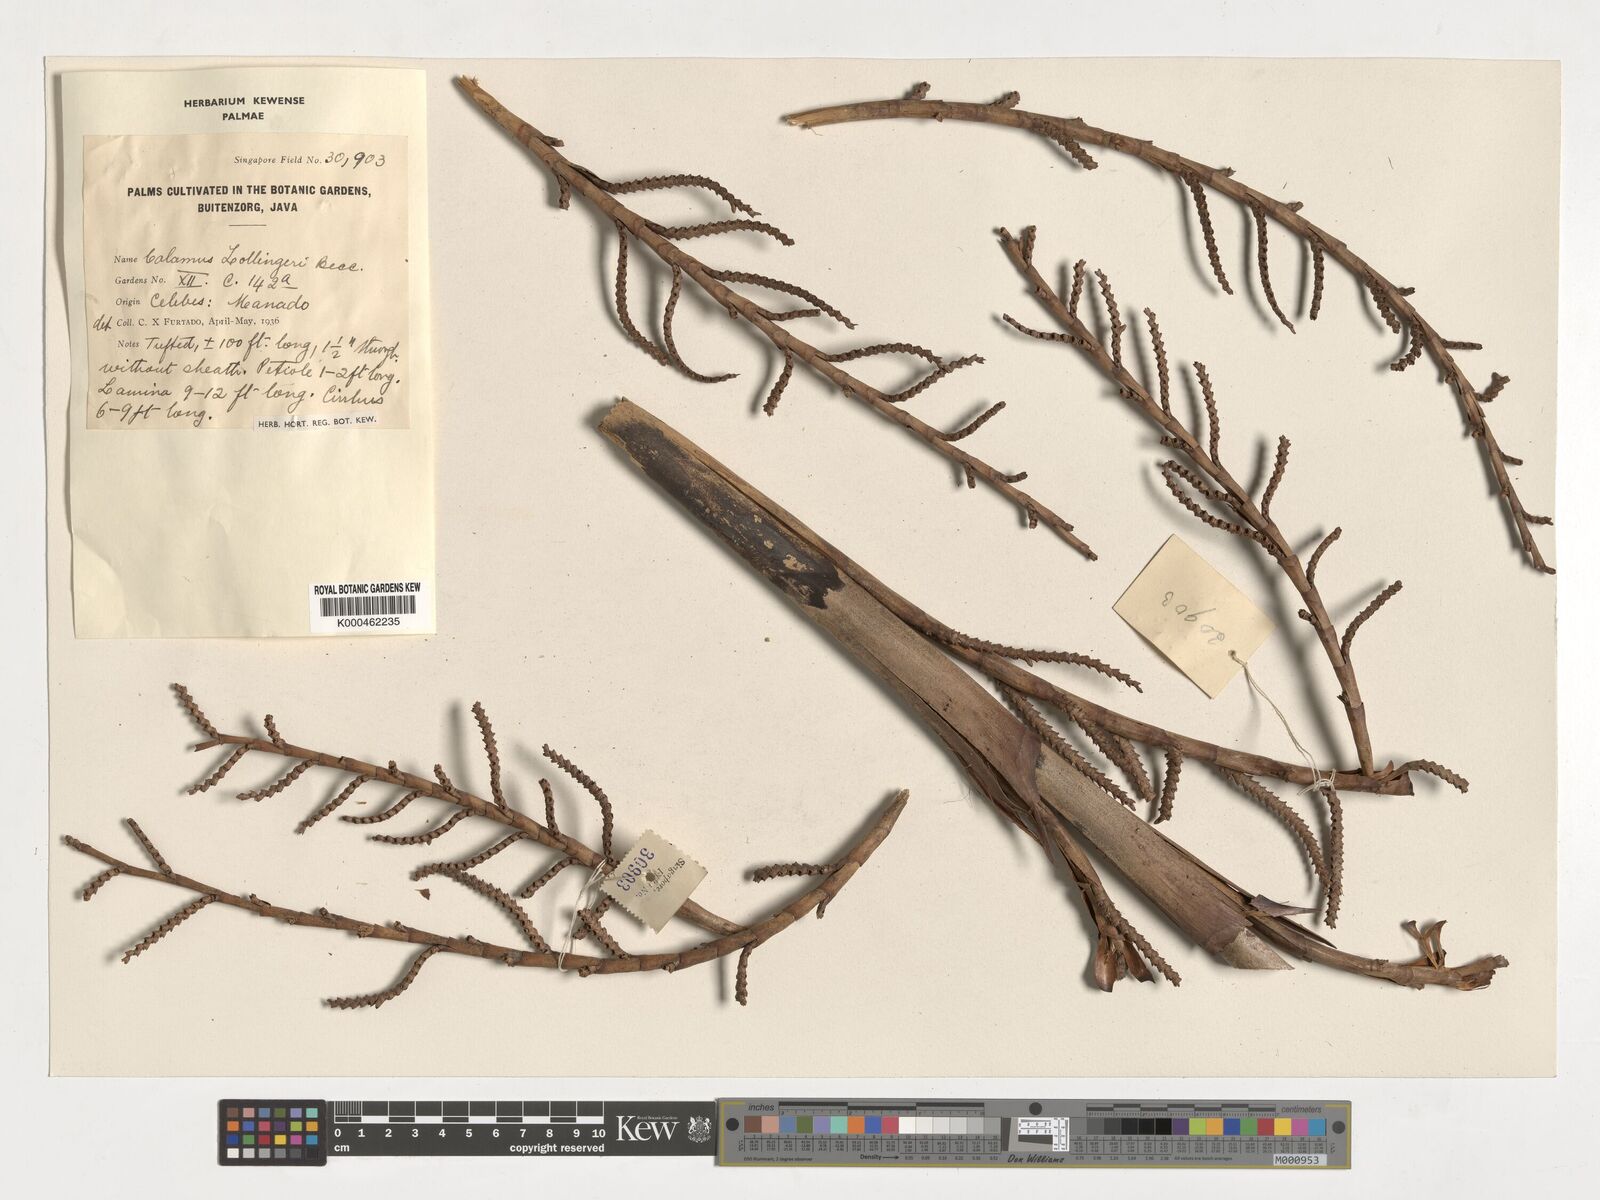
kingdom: Plantae
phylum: Tracheophyta
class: Liliopsida
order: Arecales
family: Arecaceae
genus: Calamus
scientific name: Calamus zollingeri
